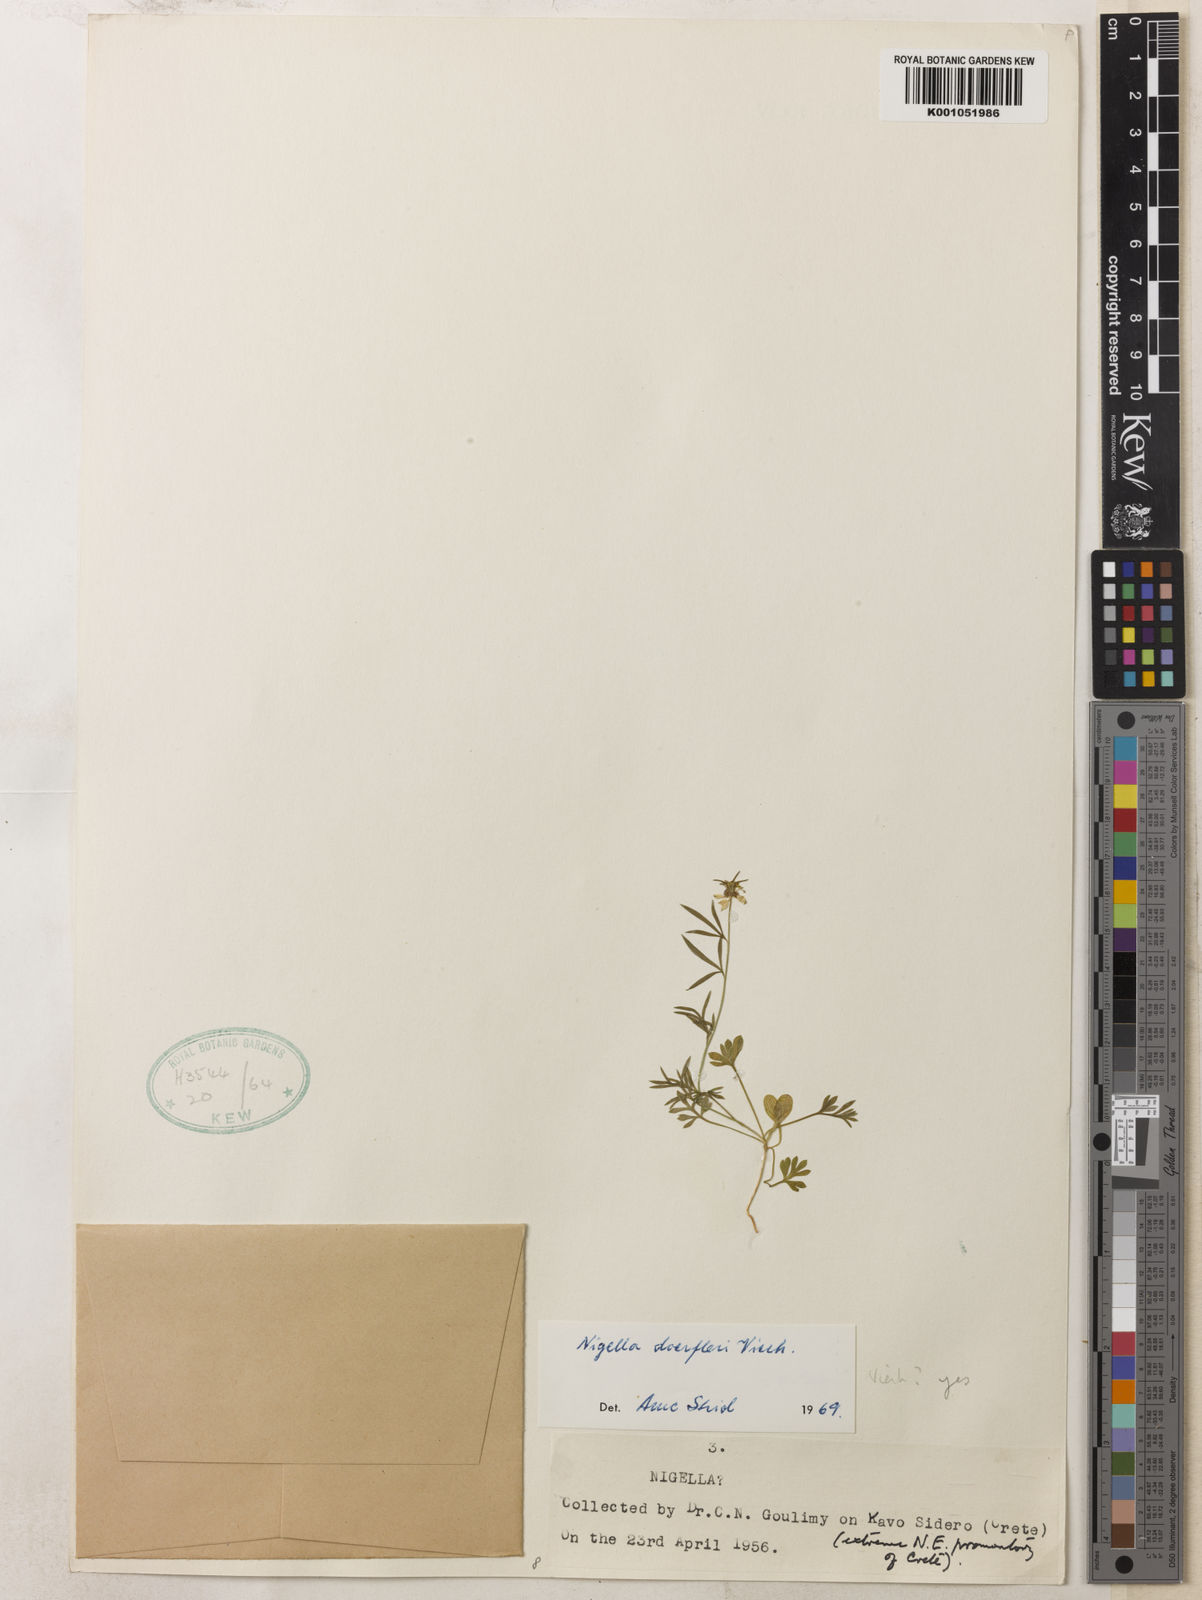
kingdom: Plantae
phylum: Tracheophyta
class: Magnoliopsida
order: Ranunculales
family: Ranunculaceae
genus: Nigella
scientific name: Nigella arvensis
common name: Wild fennel-flower
